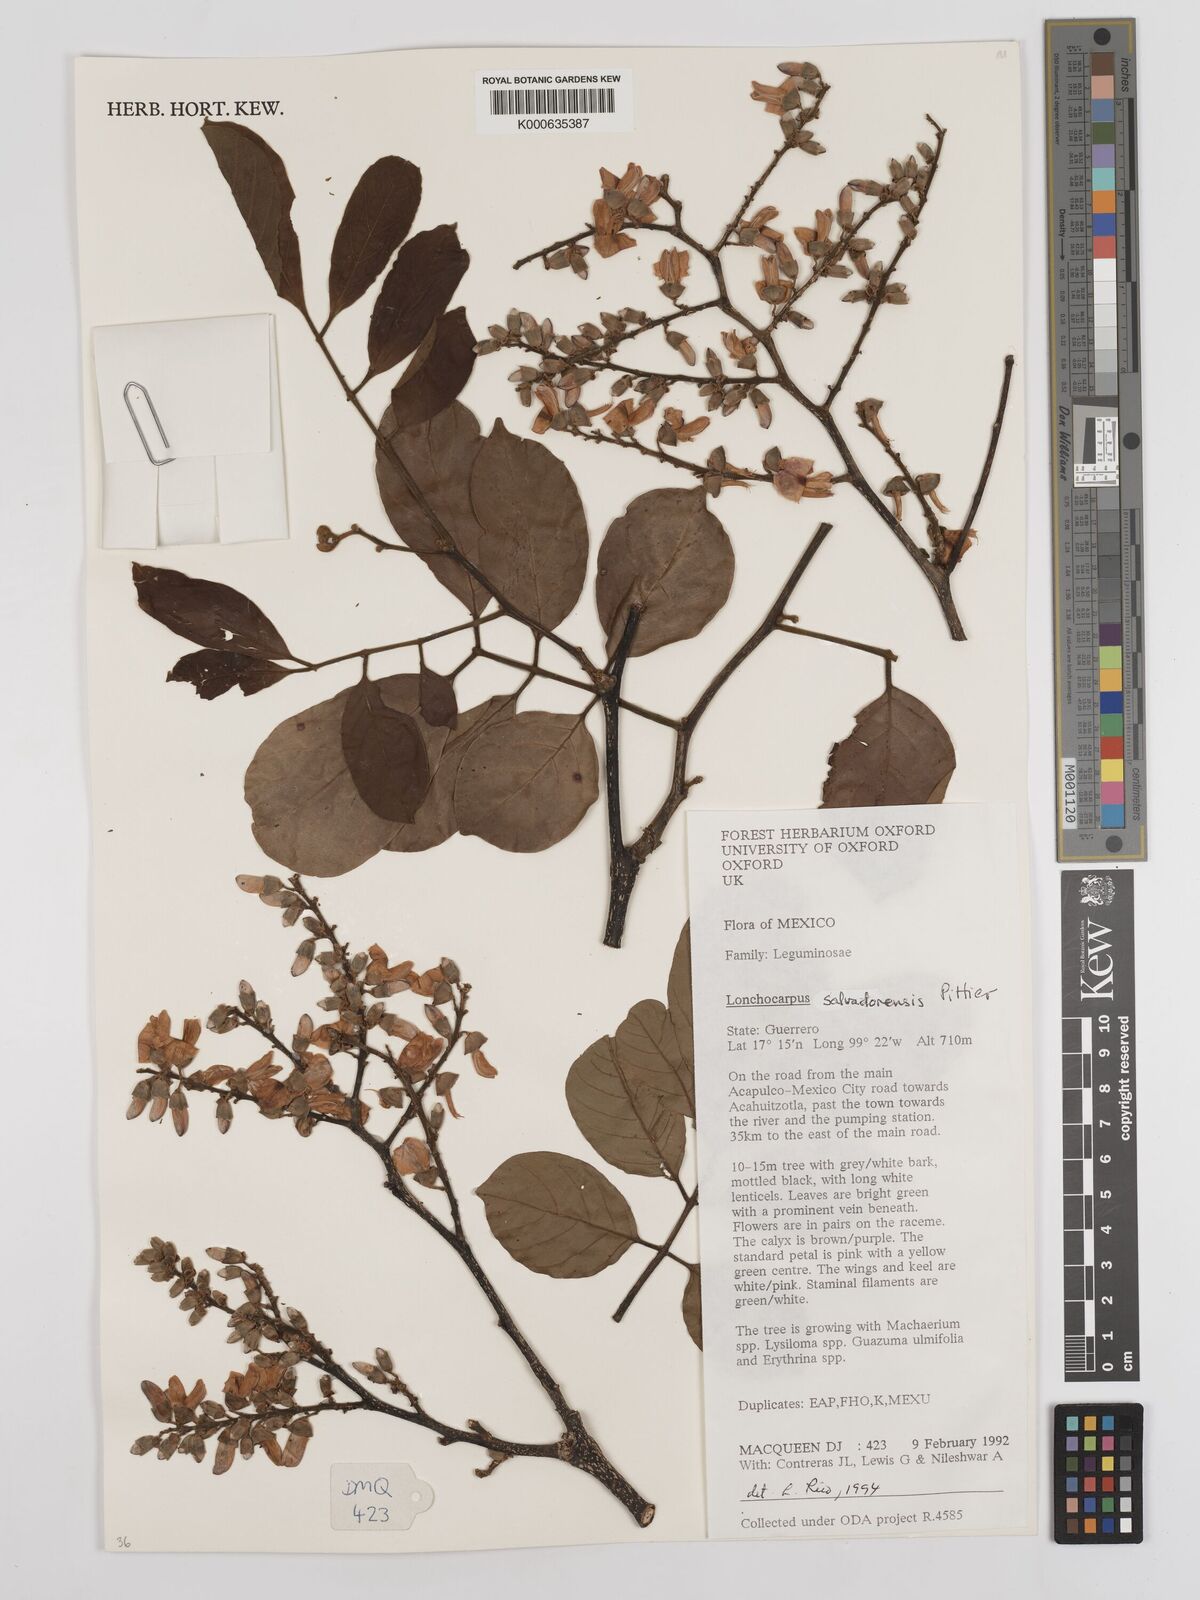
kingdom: Plantae
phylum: Tracheophyta
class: Magnoliopsida
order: Fabales
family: Fabaceae
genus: Lonchocarpus
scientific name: Lonchocarpus salvadorensis
